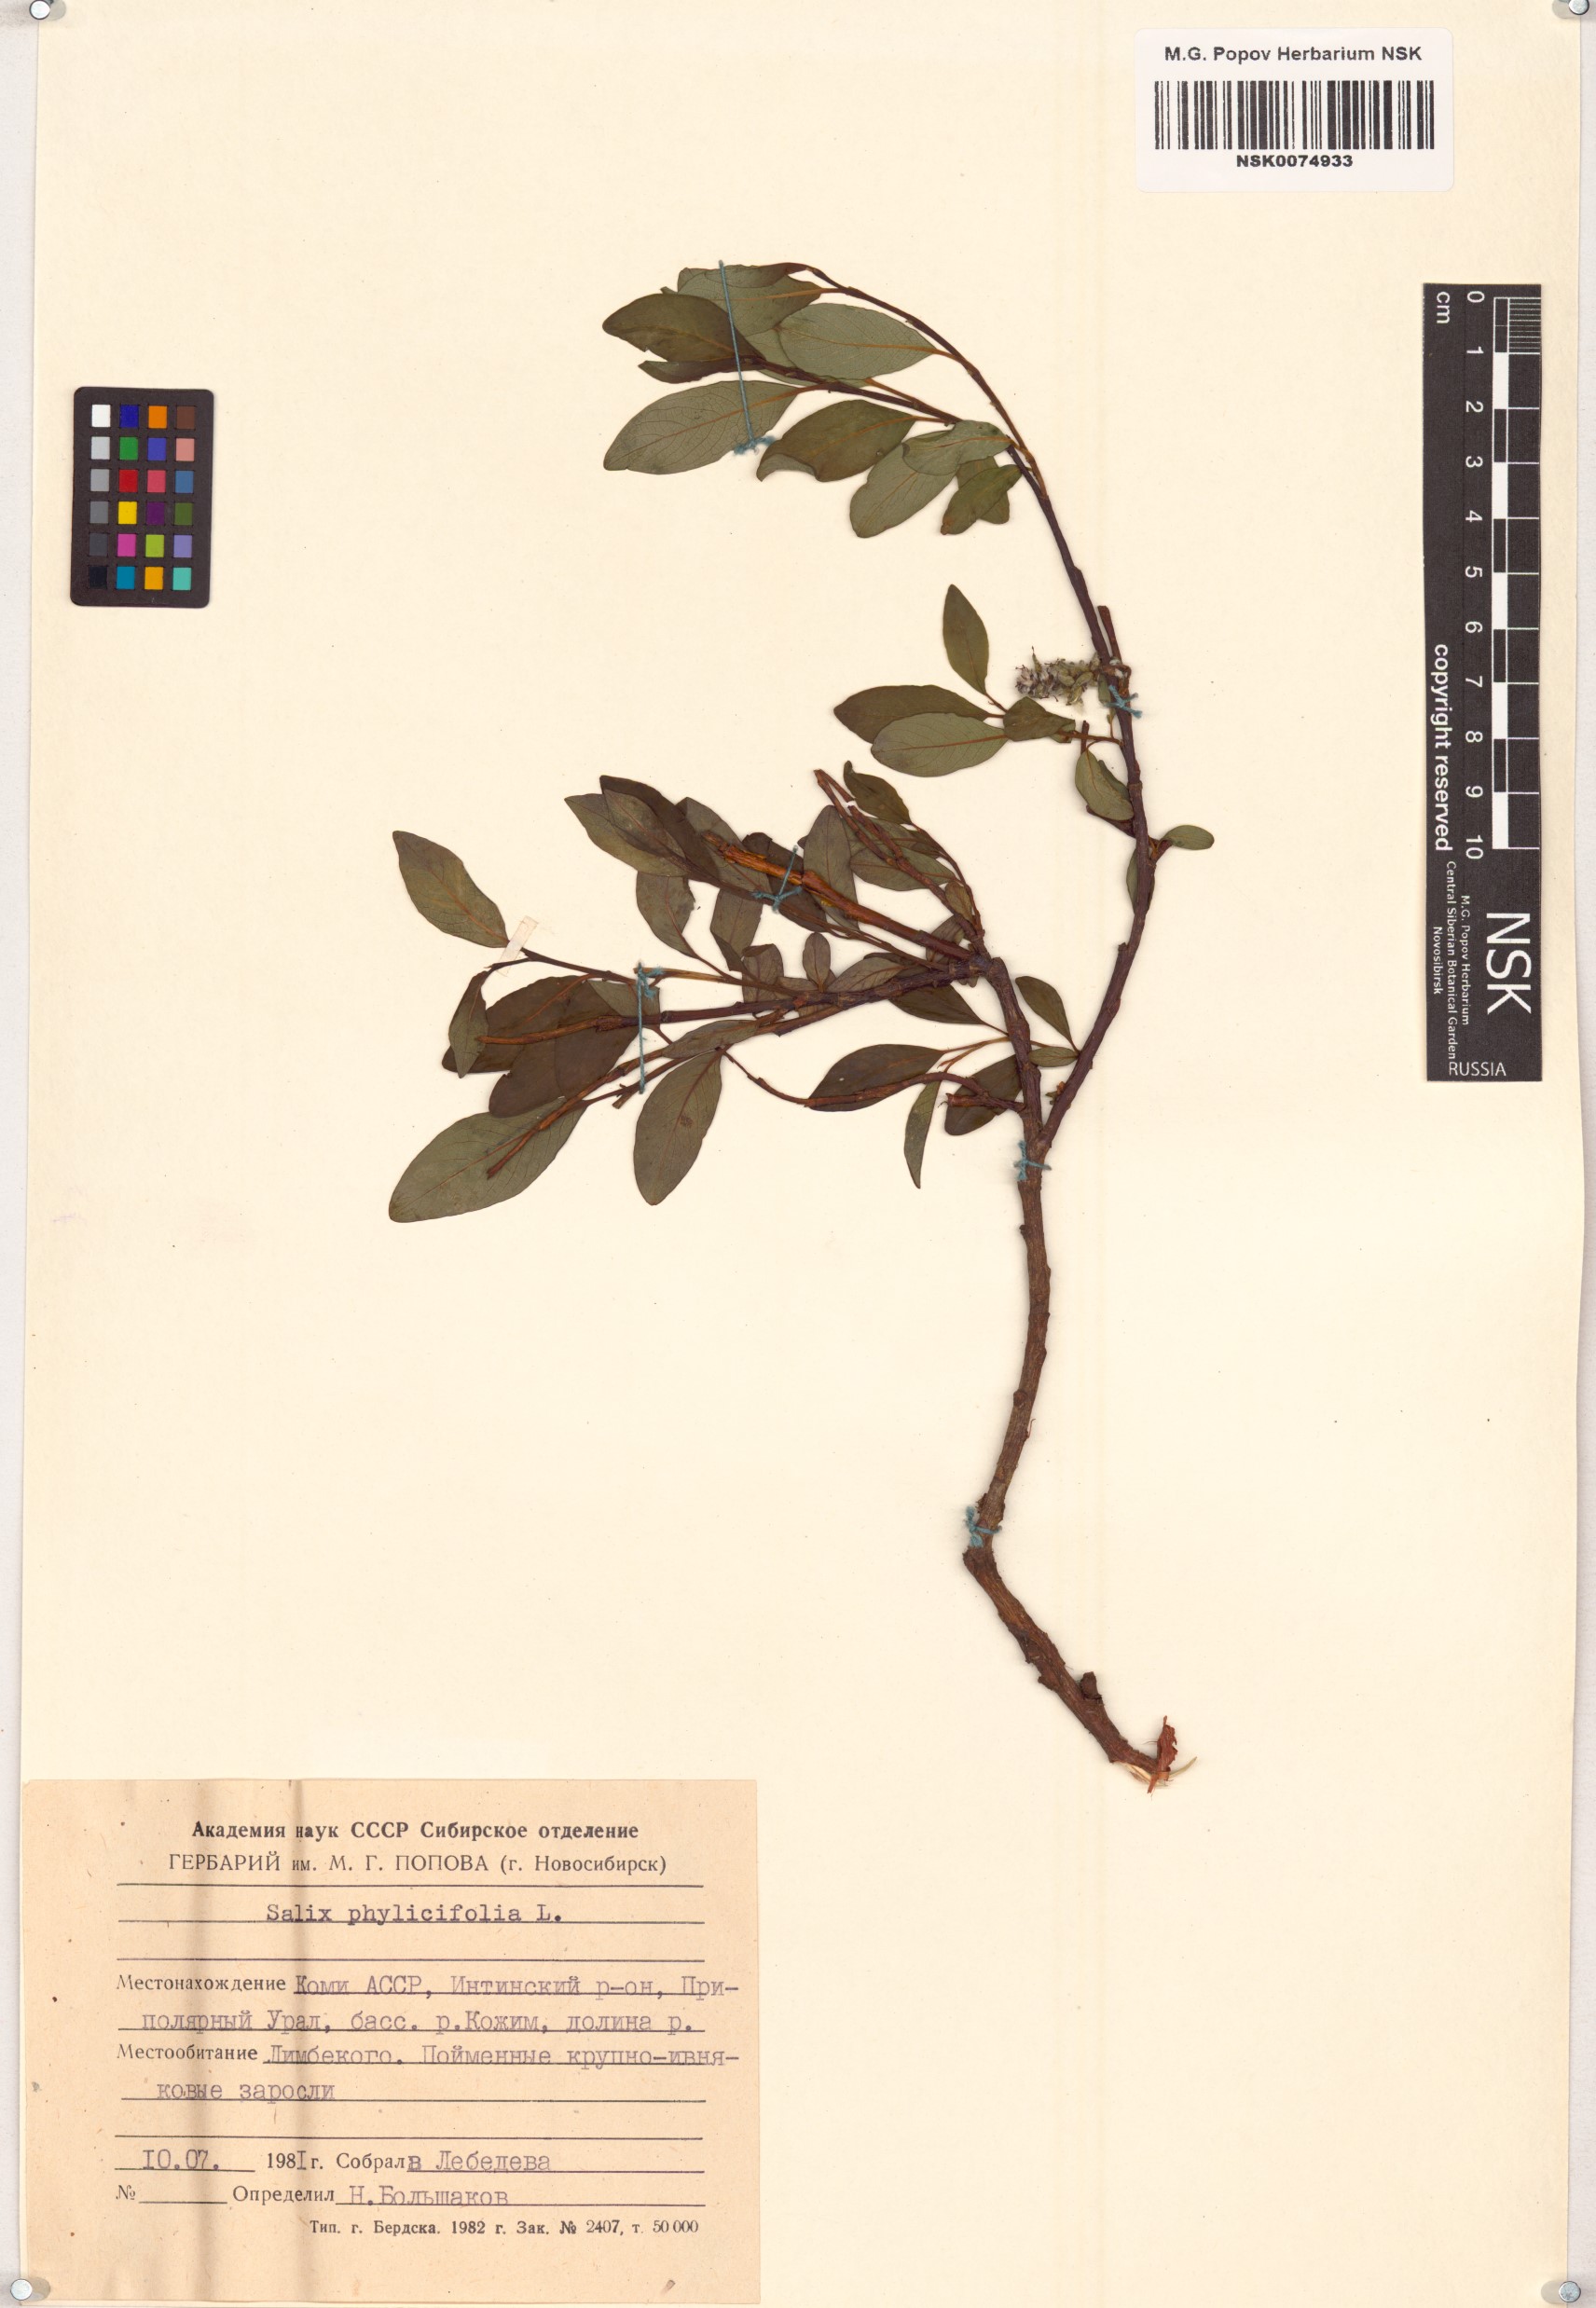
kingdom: Plantae
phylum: Tracheophyta
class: Magnoliopsida
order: Malpighiales
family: Salicaceae
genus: Salix
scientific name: Salix phylicifolia
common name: Tea-leaved willow
